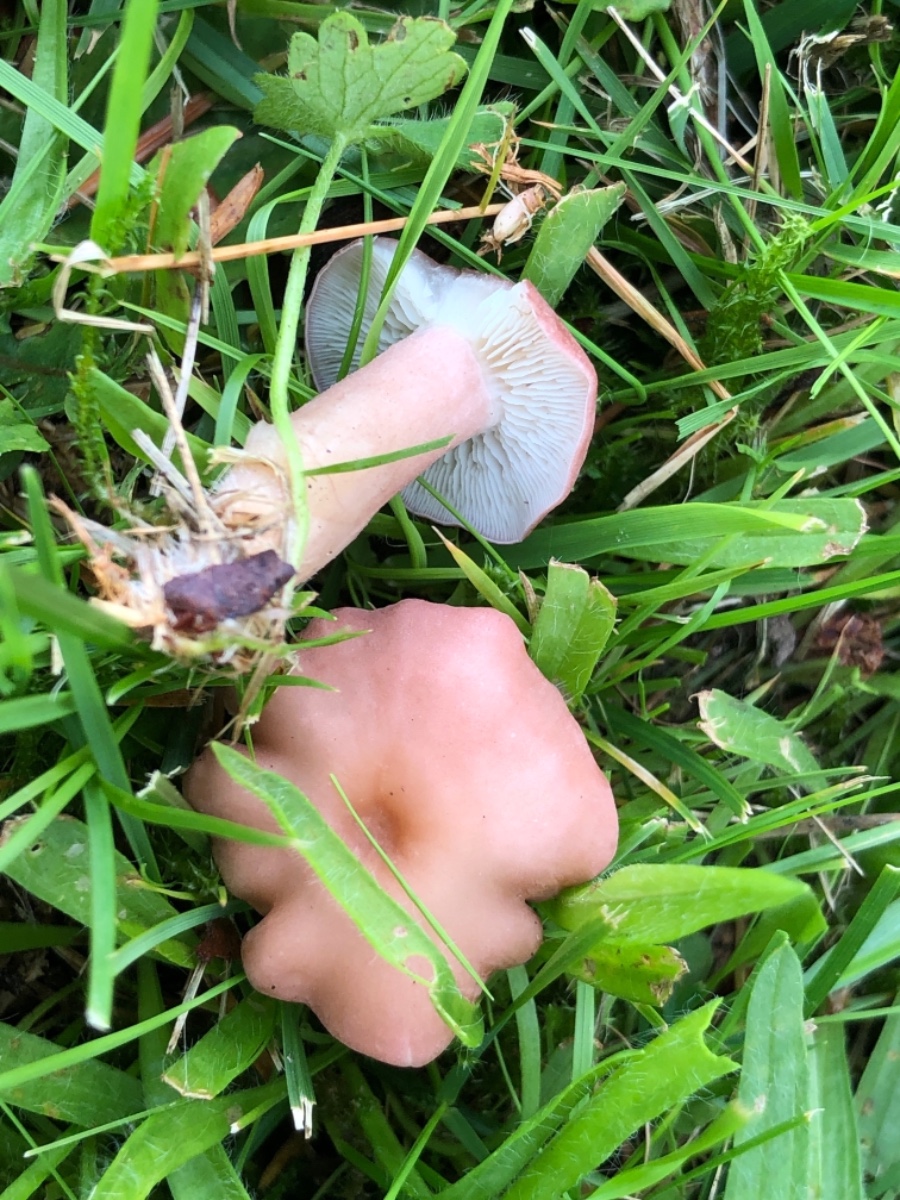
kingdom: Fungi
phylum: Basidiomycota
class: Agaricomycetes
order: Agaricales
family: Lyophyllaceae
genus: Calocybe
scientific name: Calocybe carnea
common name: rosa fagerhat
